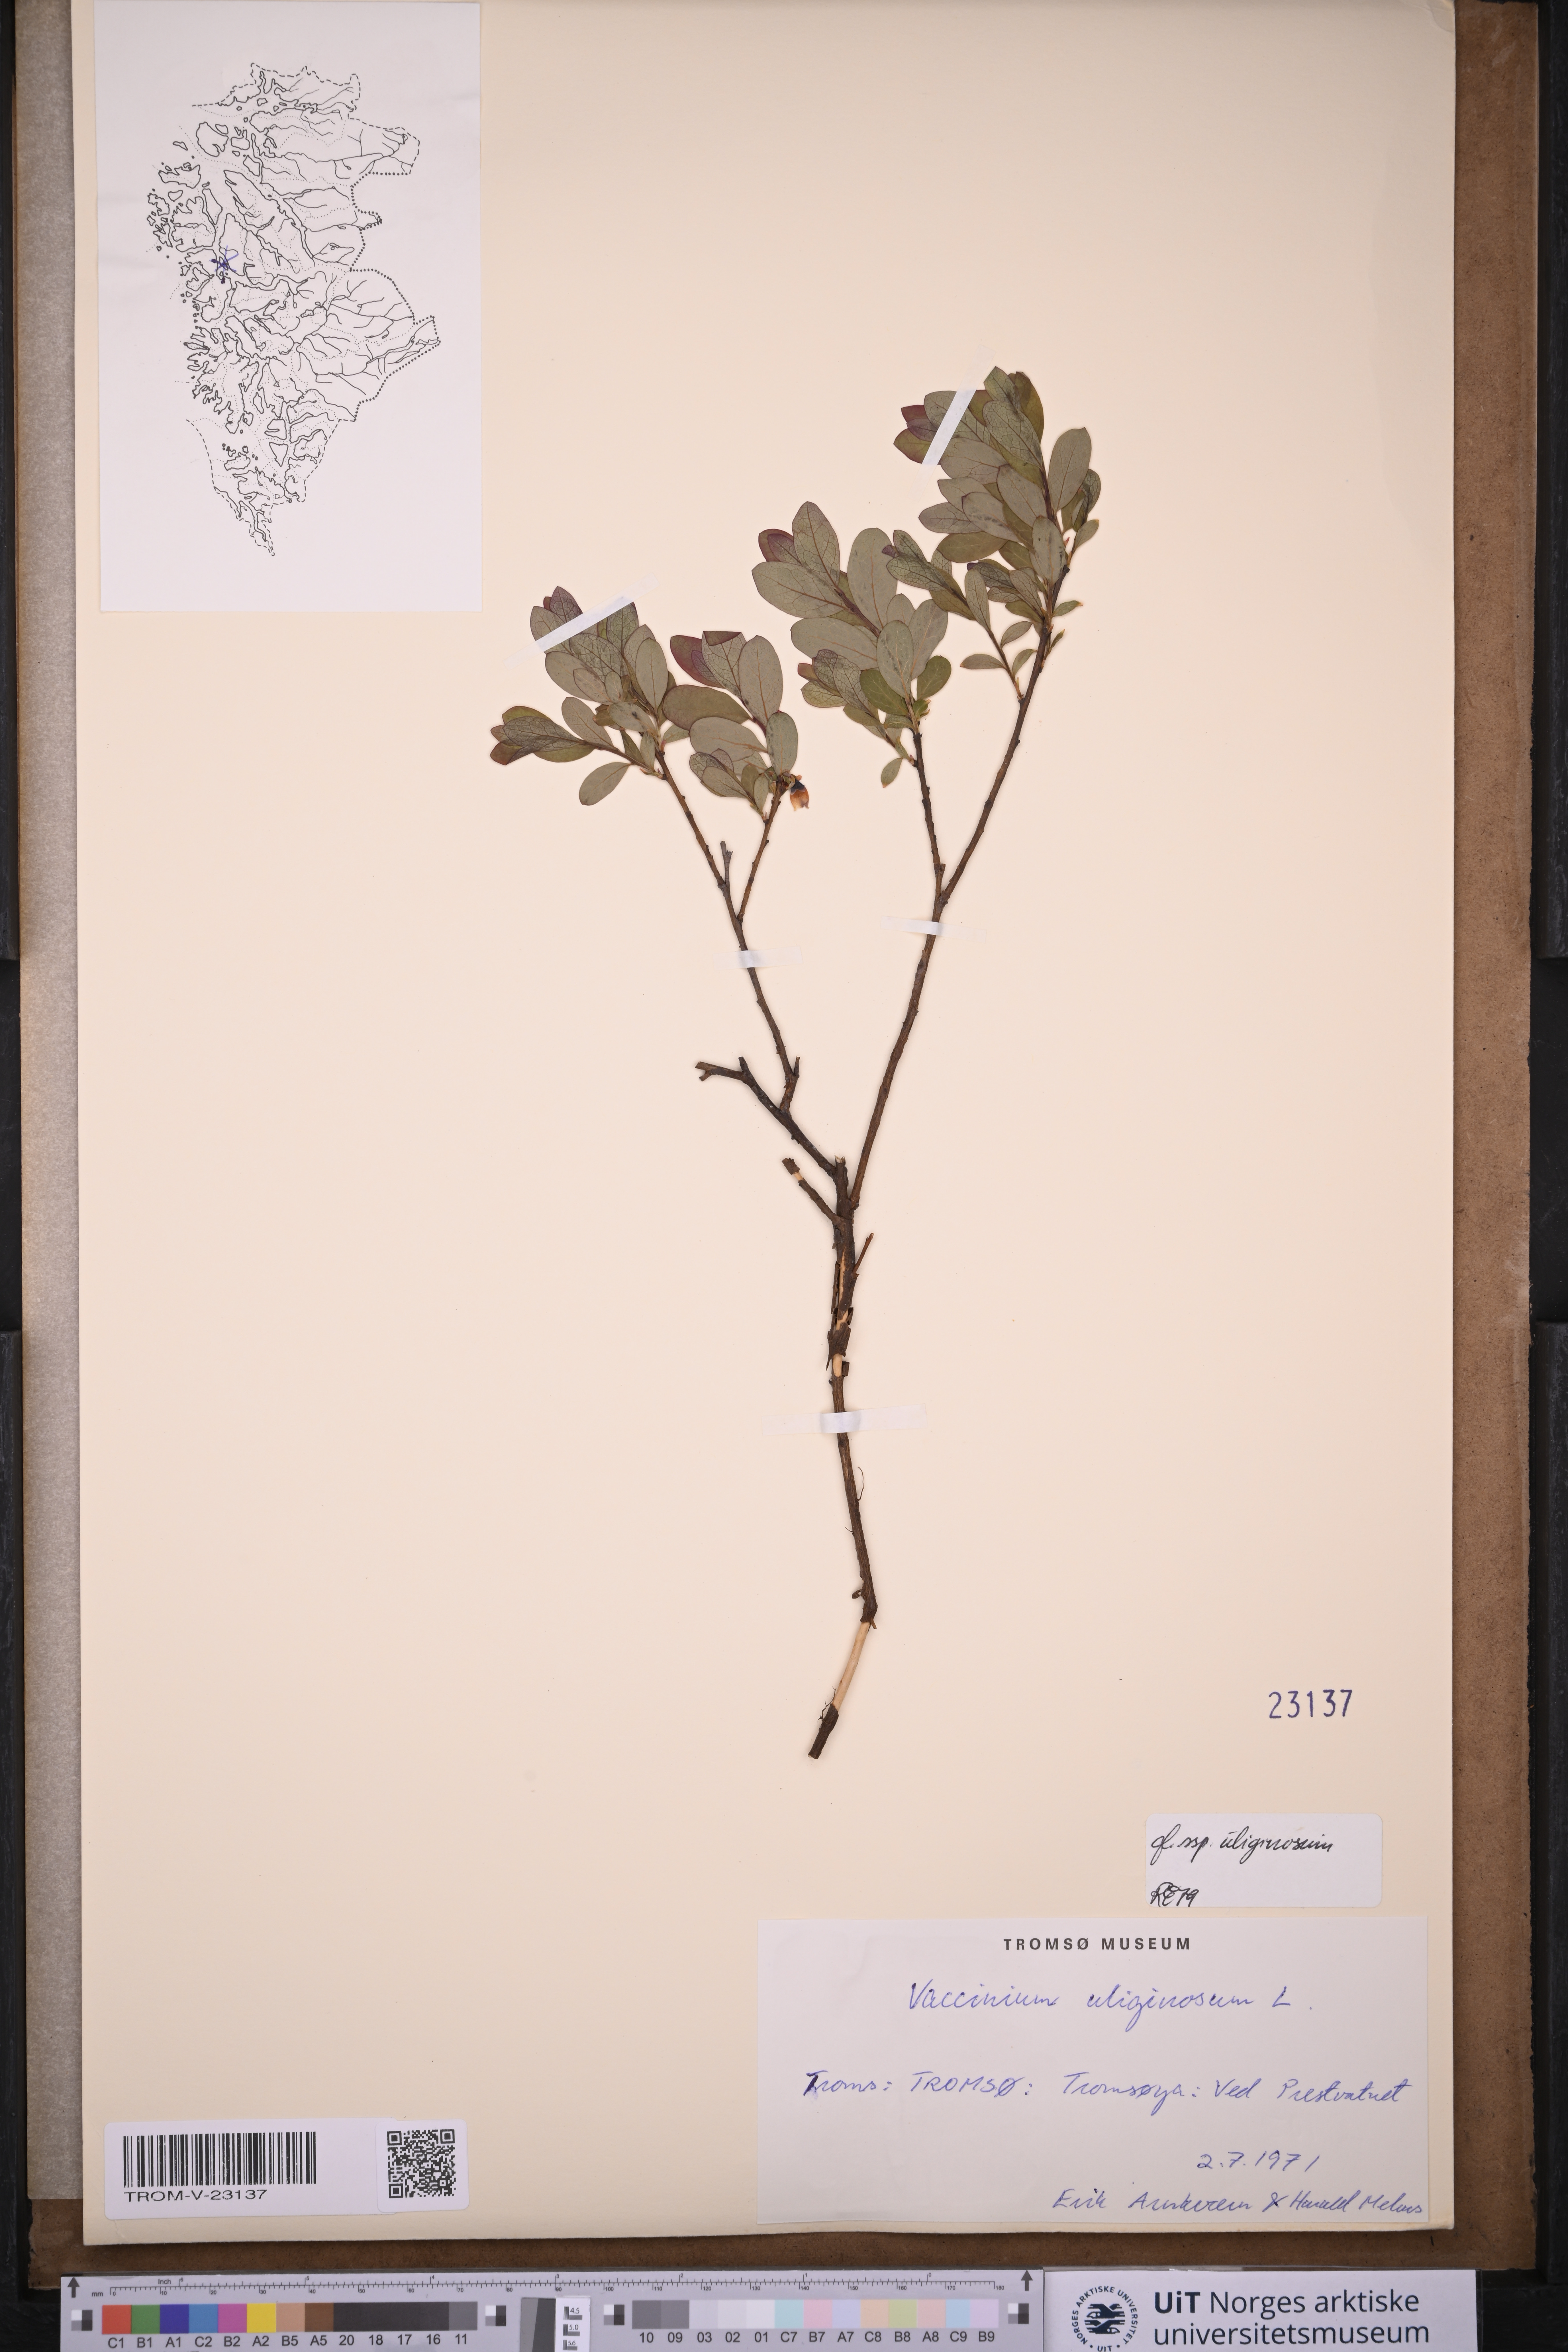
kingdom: Plantae
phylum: Tracheophyta
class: Magnoliopsida
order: Ericales
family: Ericaceae
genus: Vaccinium
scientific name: Vaccinium uliginosum
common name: Bog bilberry
